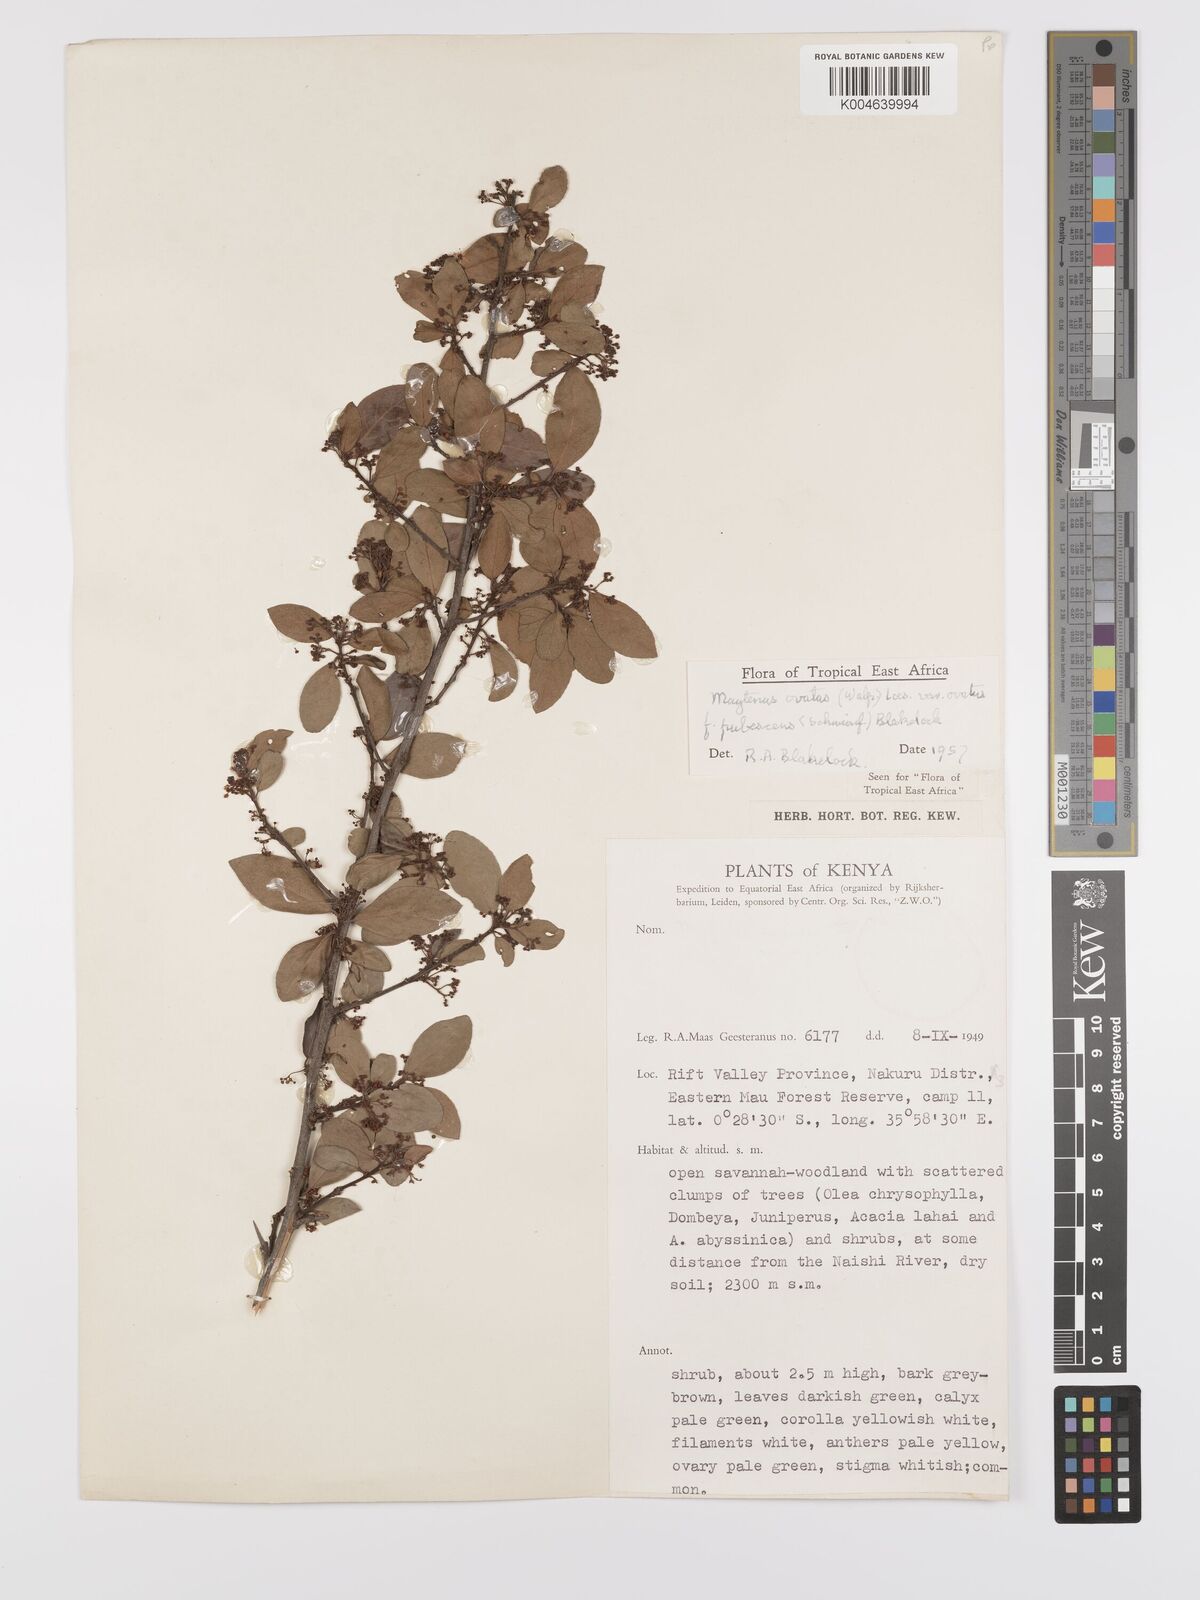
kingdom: Plantae
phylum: Tracheophyta
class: Magnoliopsida
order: Celastrales
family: Celastraceae
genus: Gymnosporia
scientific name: Gymnosporia arbutifolia
